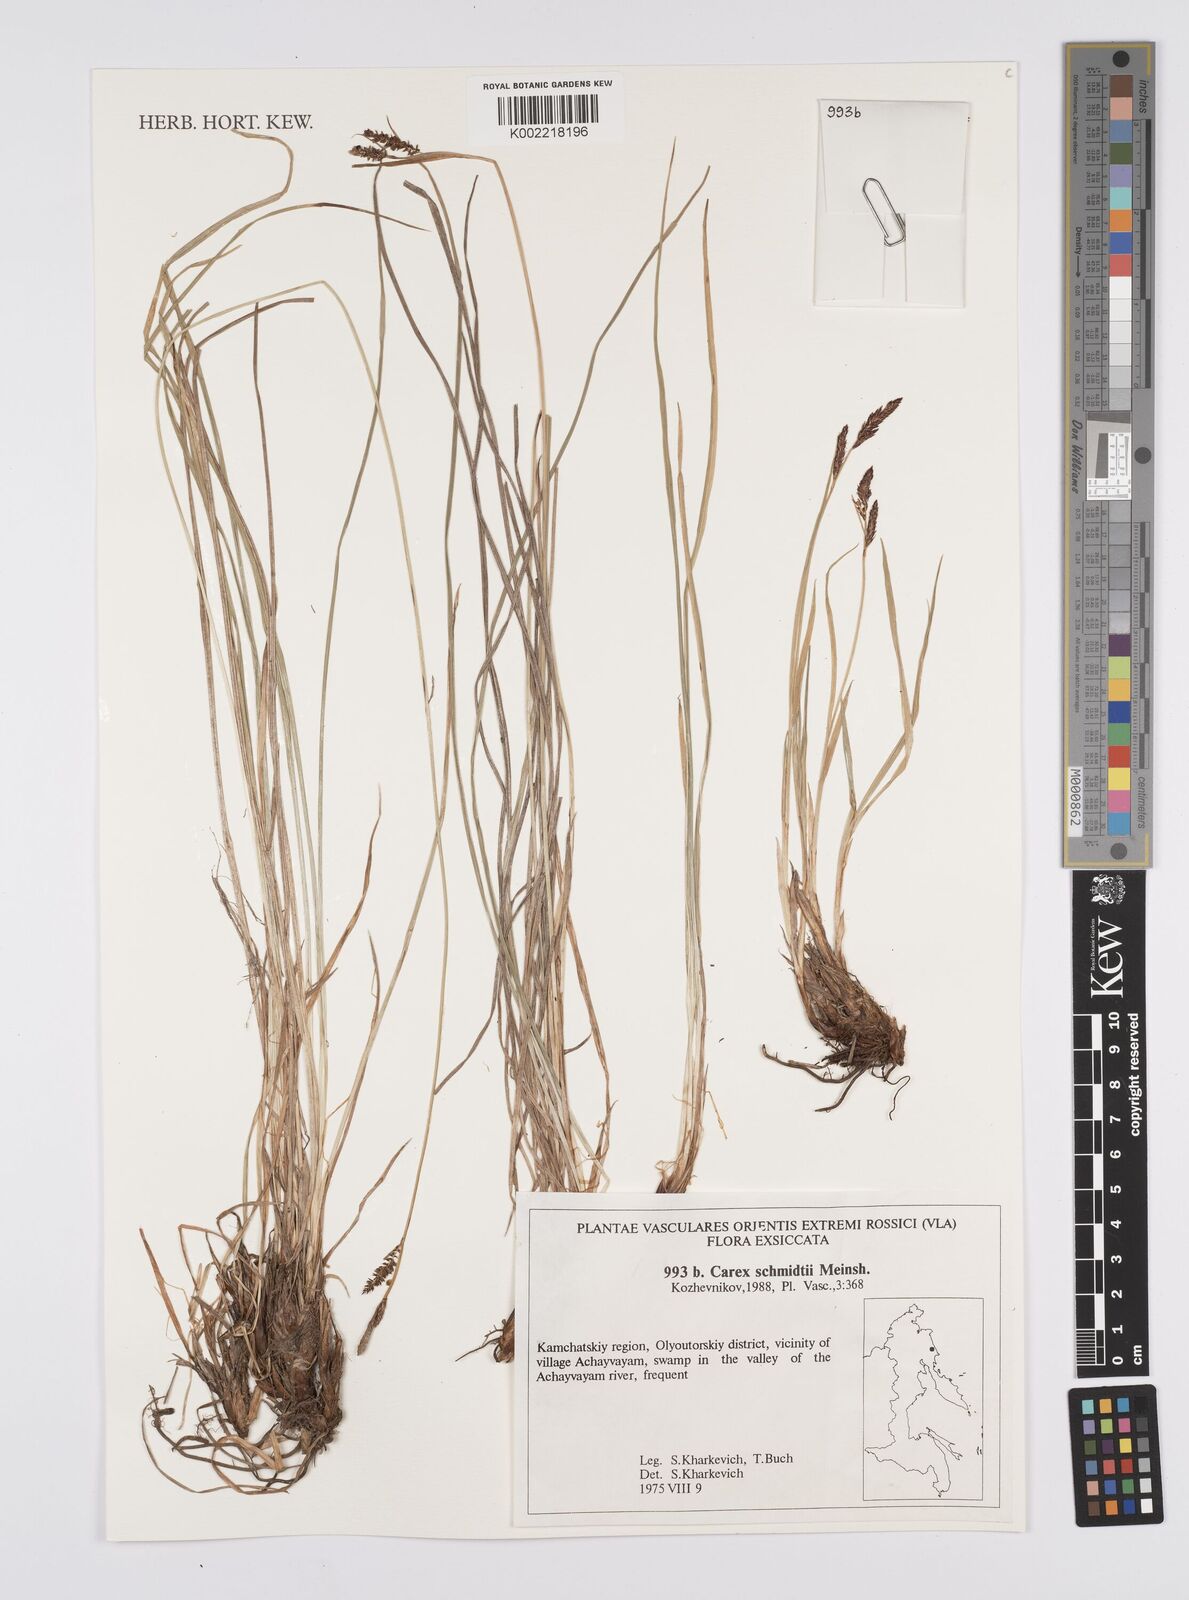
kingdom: Plantae
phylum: Tracheophyta
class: Liliopsida
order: Poales
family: Cyperaceae
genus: Carex
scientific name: Carex schmidtii
